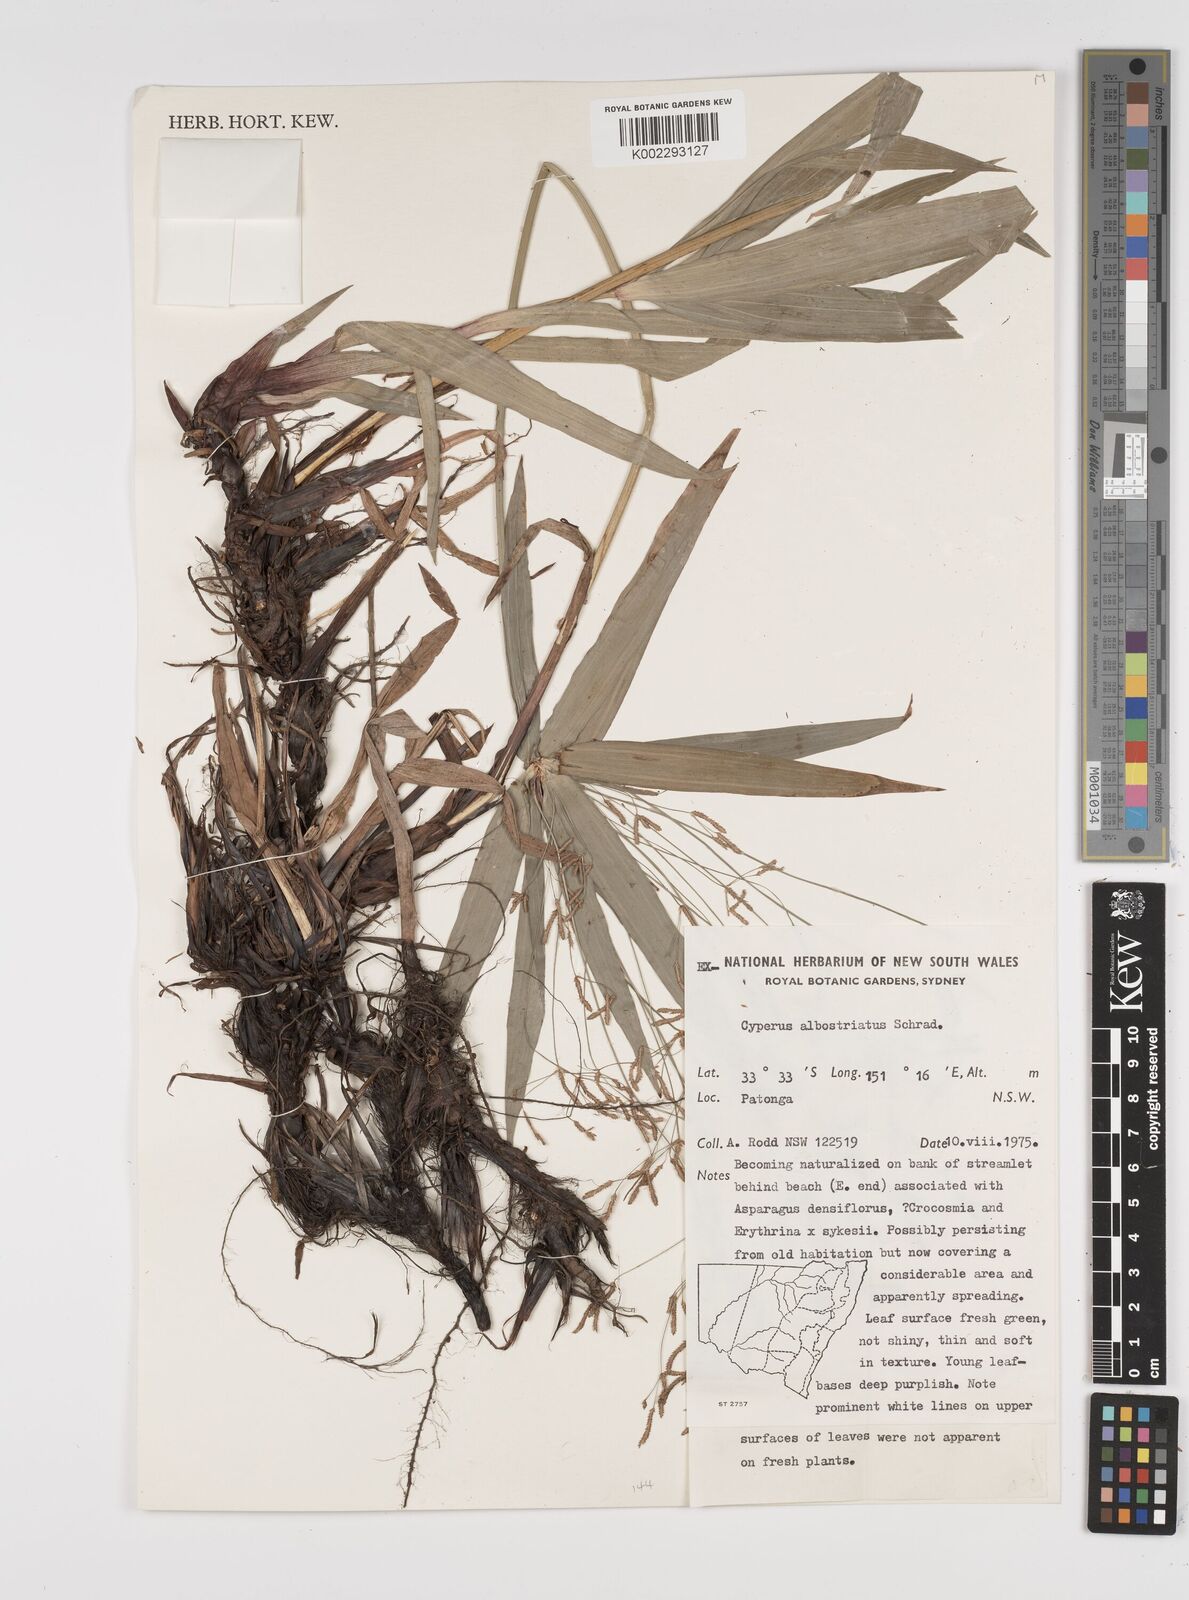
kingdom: Plantae
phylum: Tracheophyta
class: Liliopsida
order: Poales
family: Cyperaceae
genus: Cyperus
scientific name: Cyperus albostriatus
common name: Dwarf umbrella-grass
